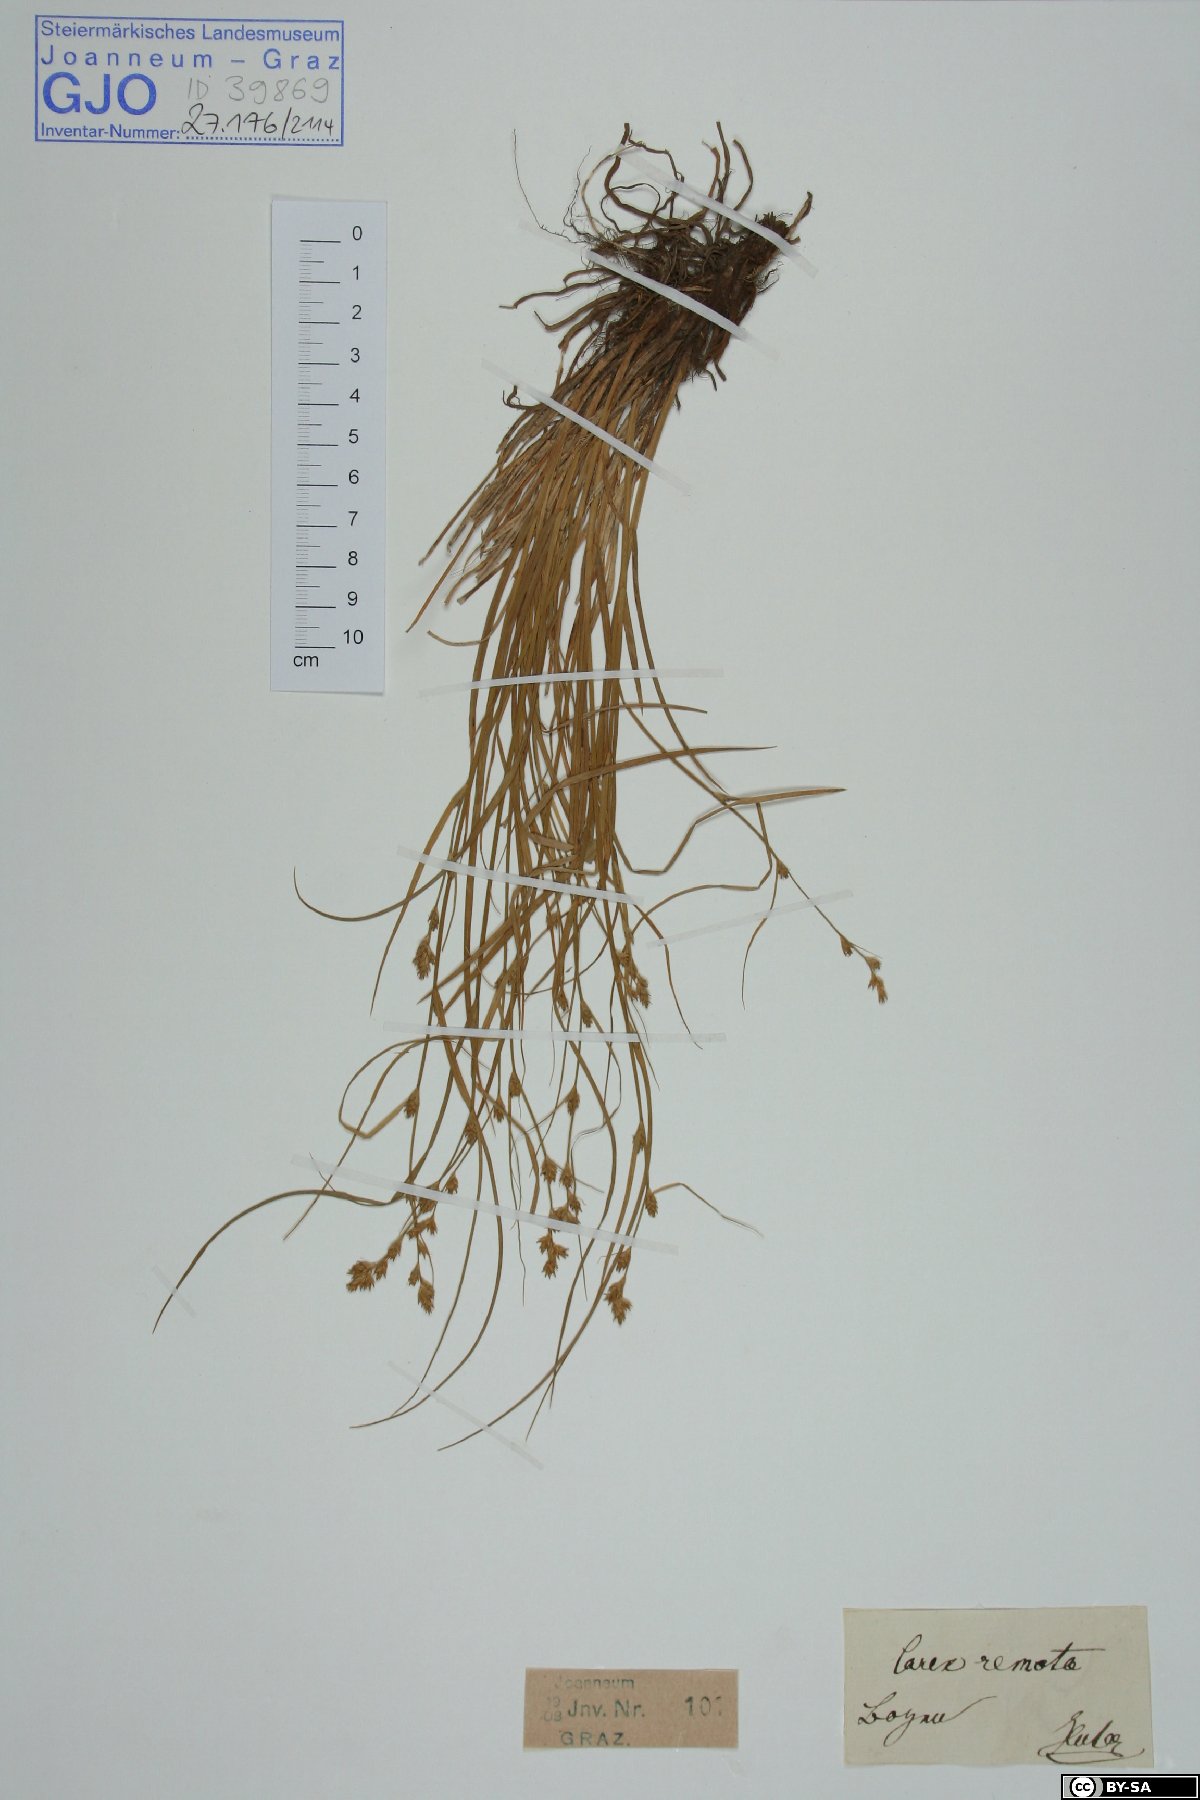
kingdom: Plantae
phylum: Tracheophyta
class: Liliopsida
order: Poales
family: Cyperaceae
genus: Carex
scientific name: Carex remota
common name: Remote sedge
